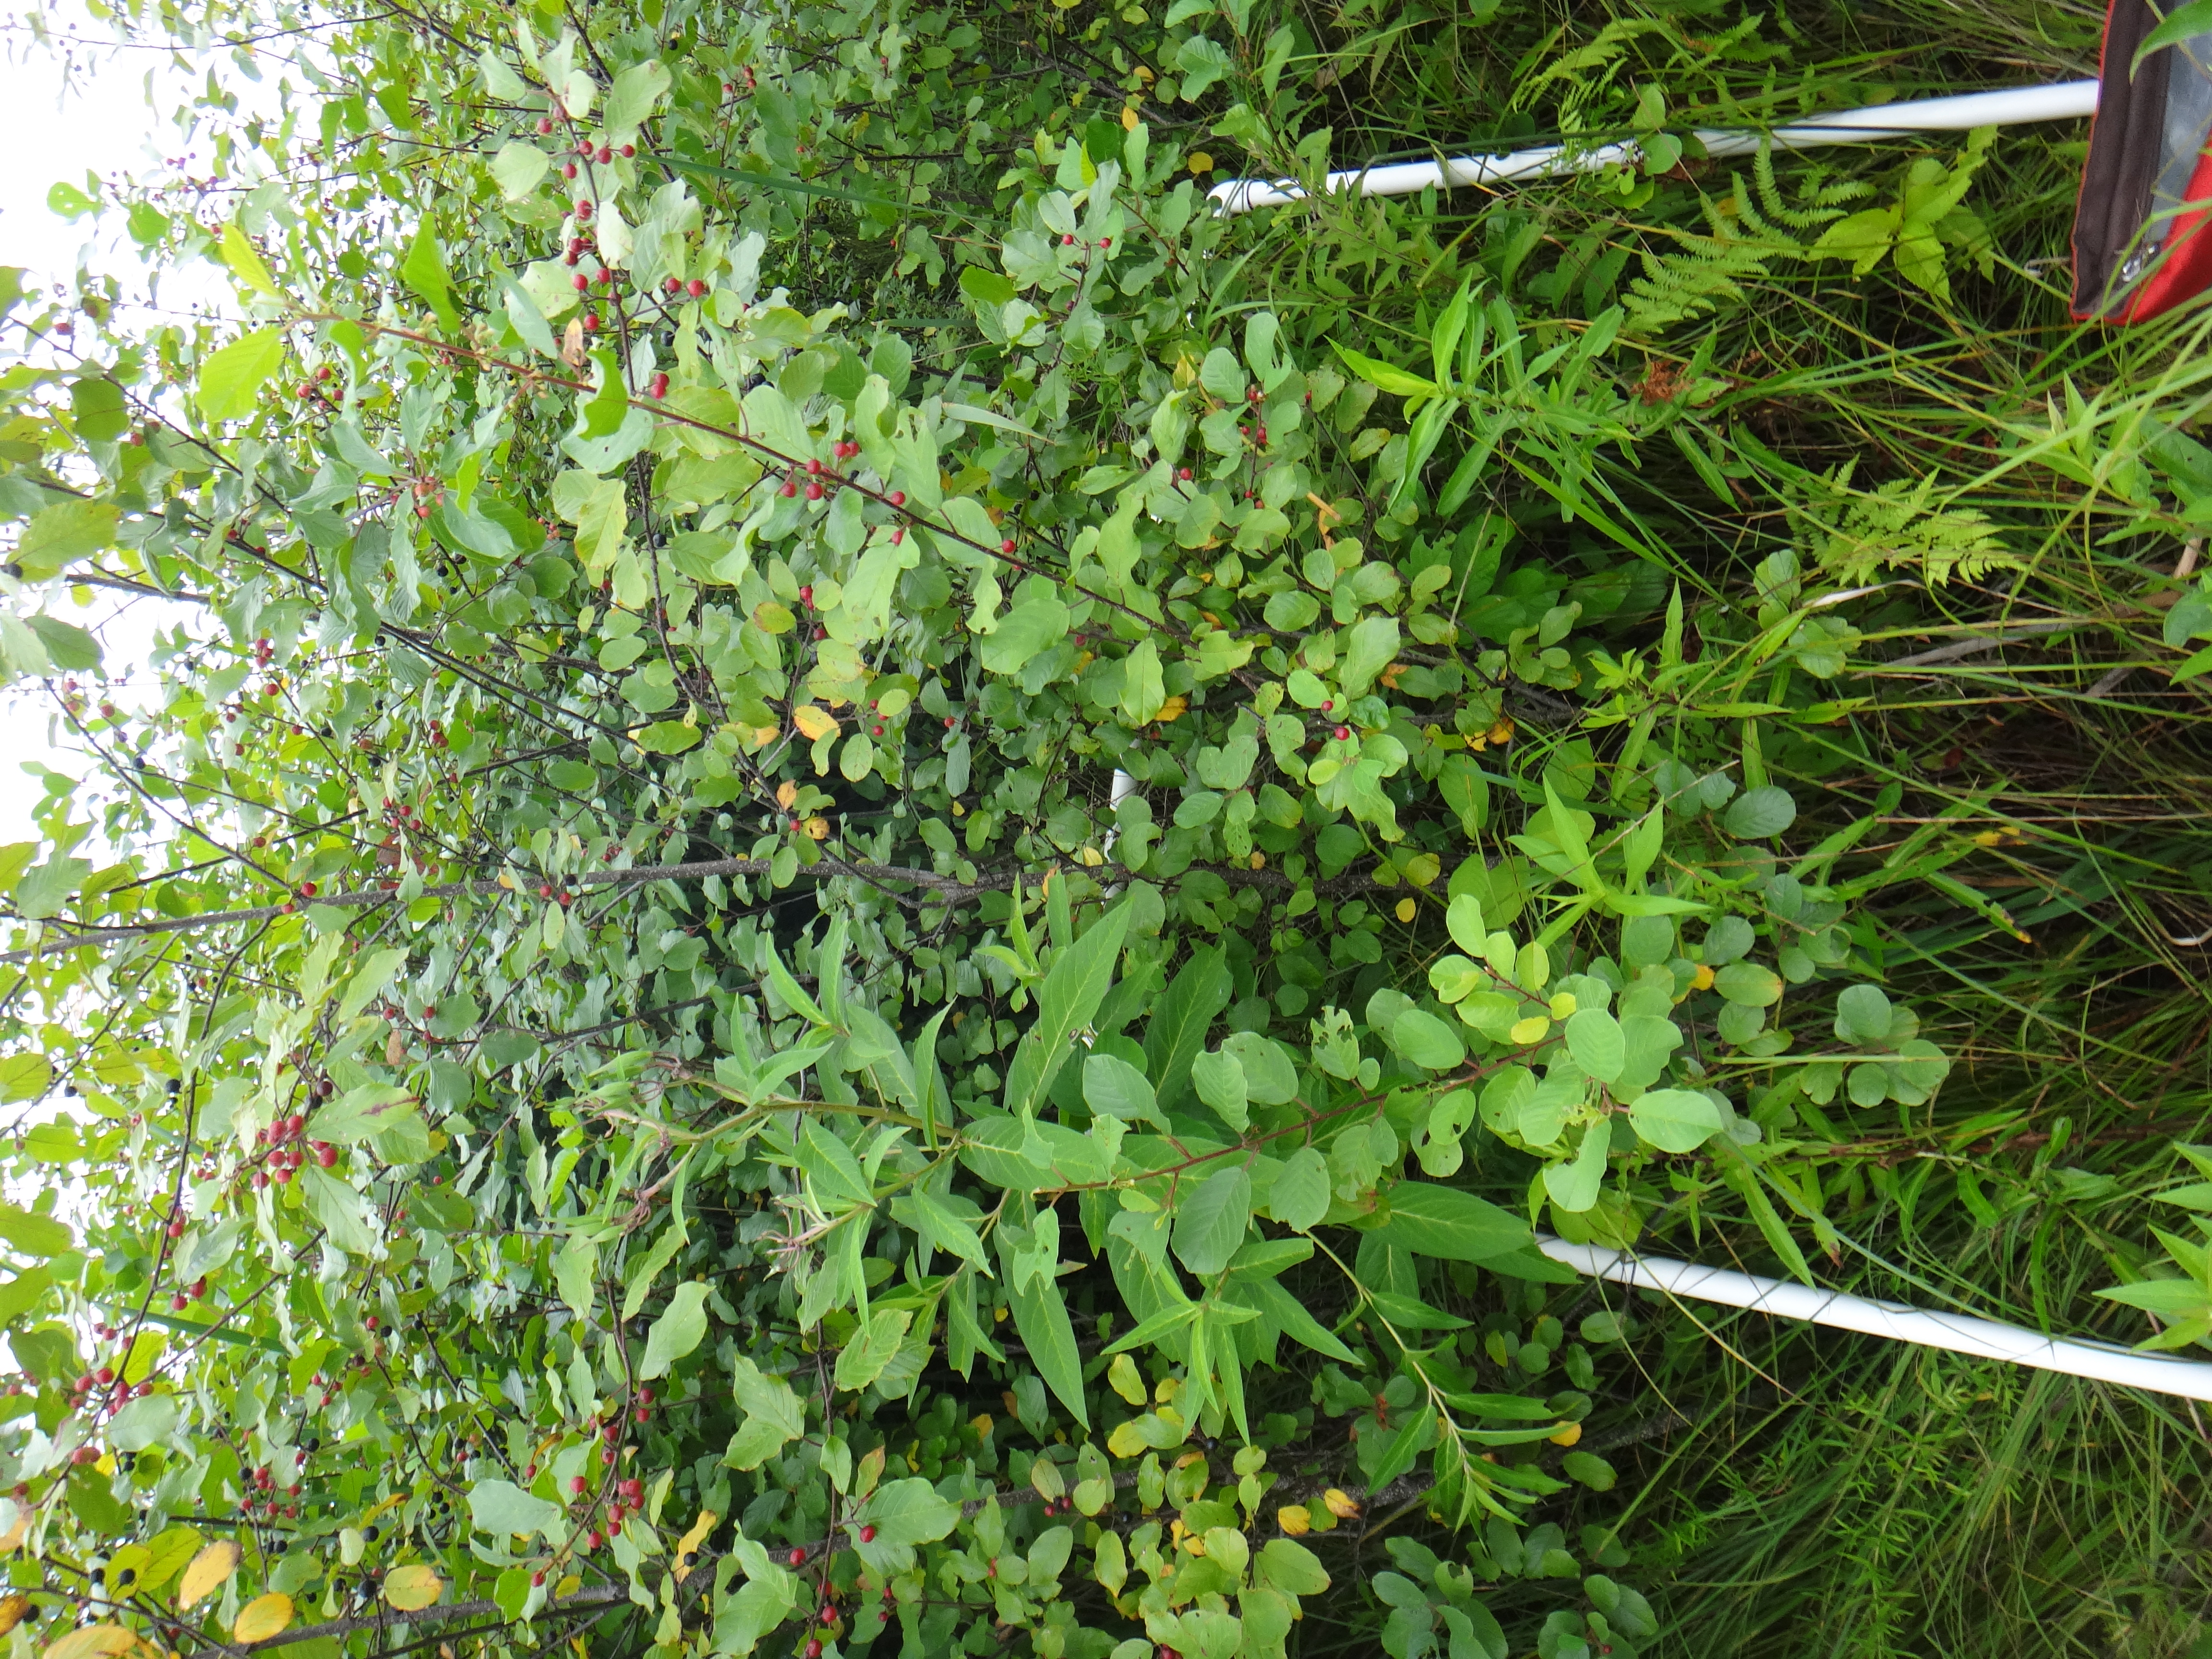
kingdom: Plantae
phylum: Tracheophyta
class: Magnoliopsida
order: Ranunculales
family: Ranunculaceae
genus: Caltha
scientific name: Caltha palustris
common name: Marsh marigold
